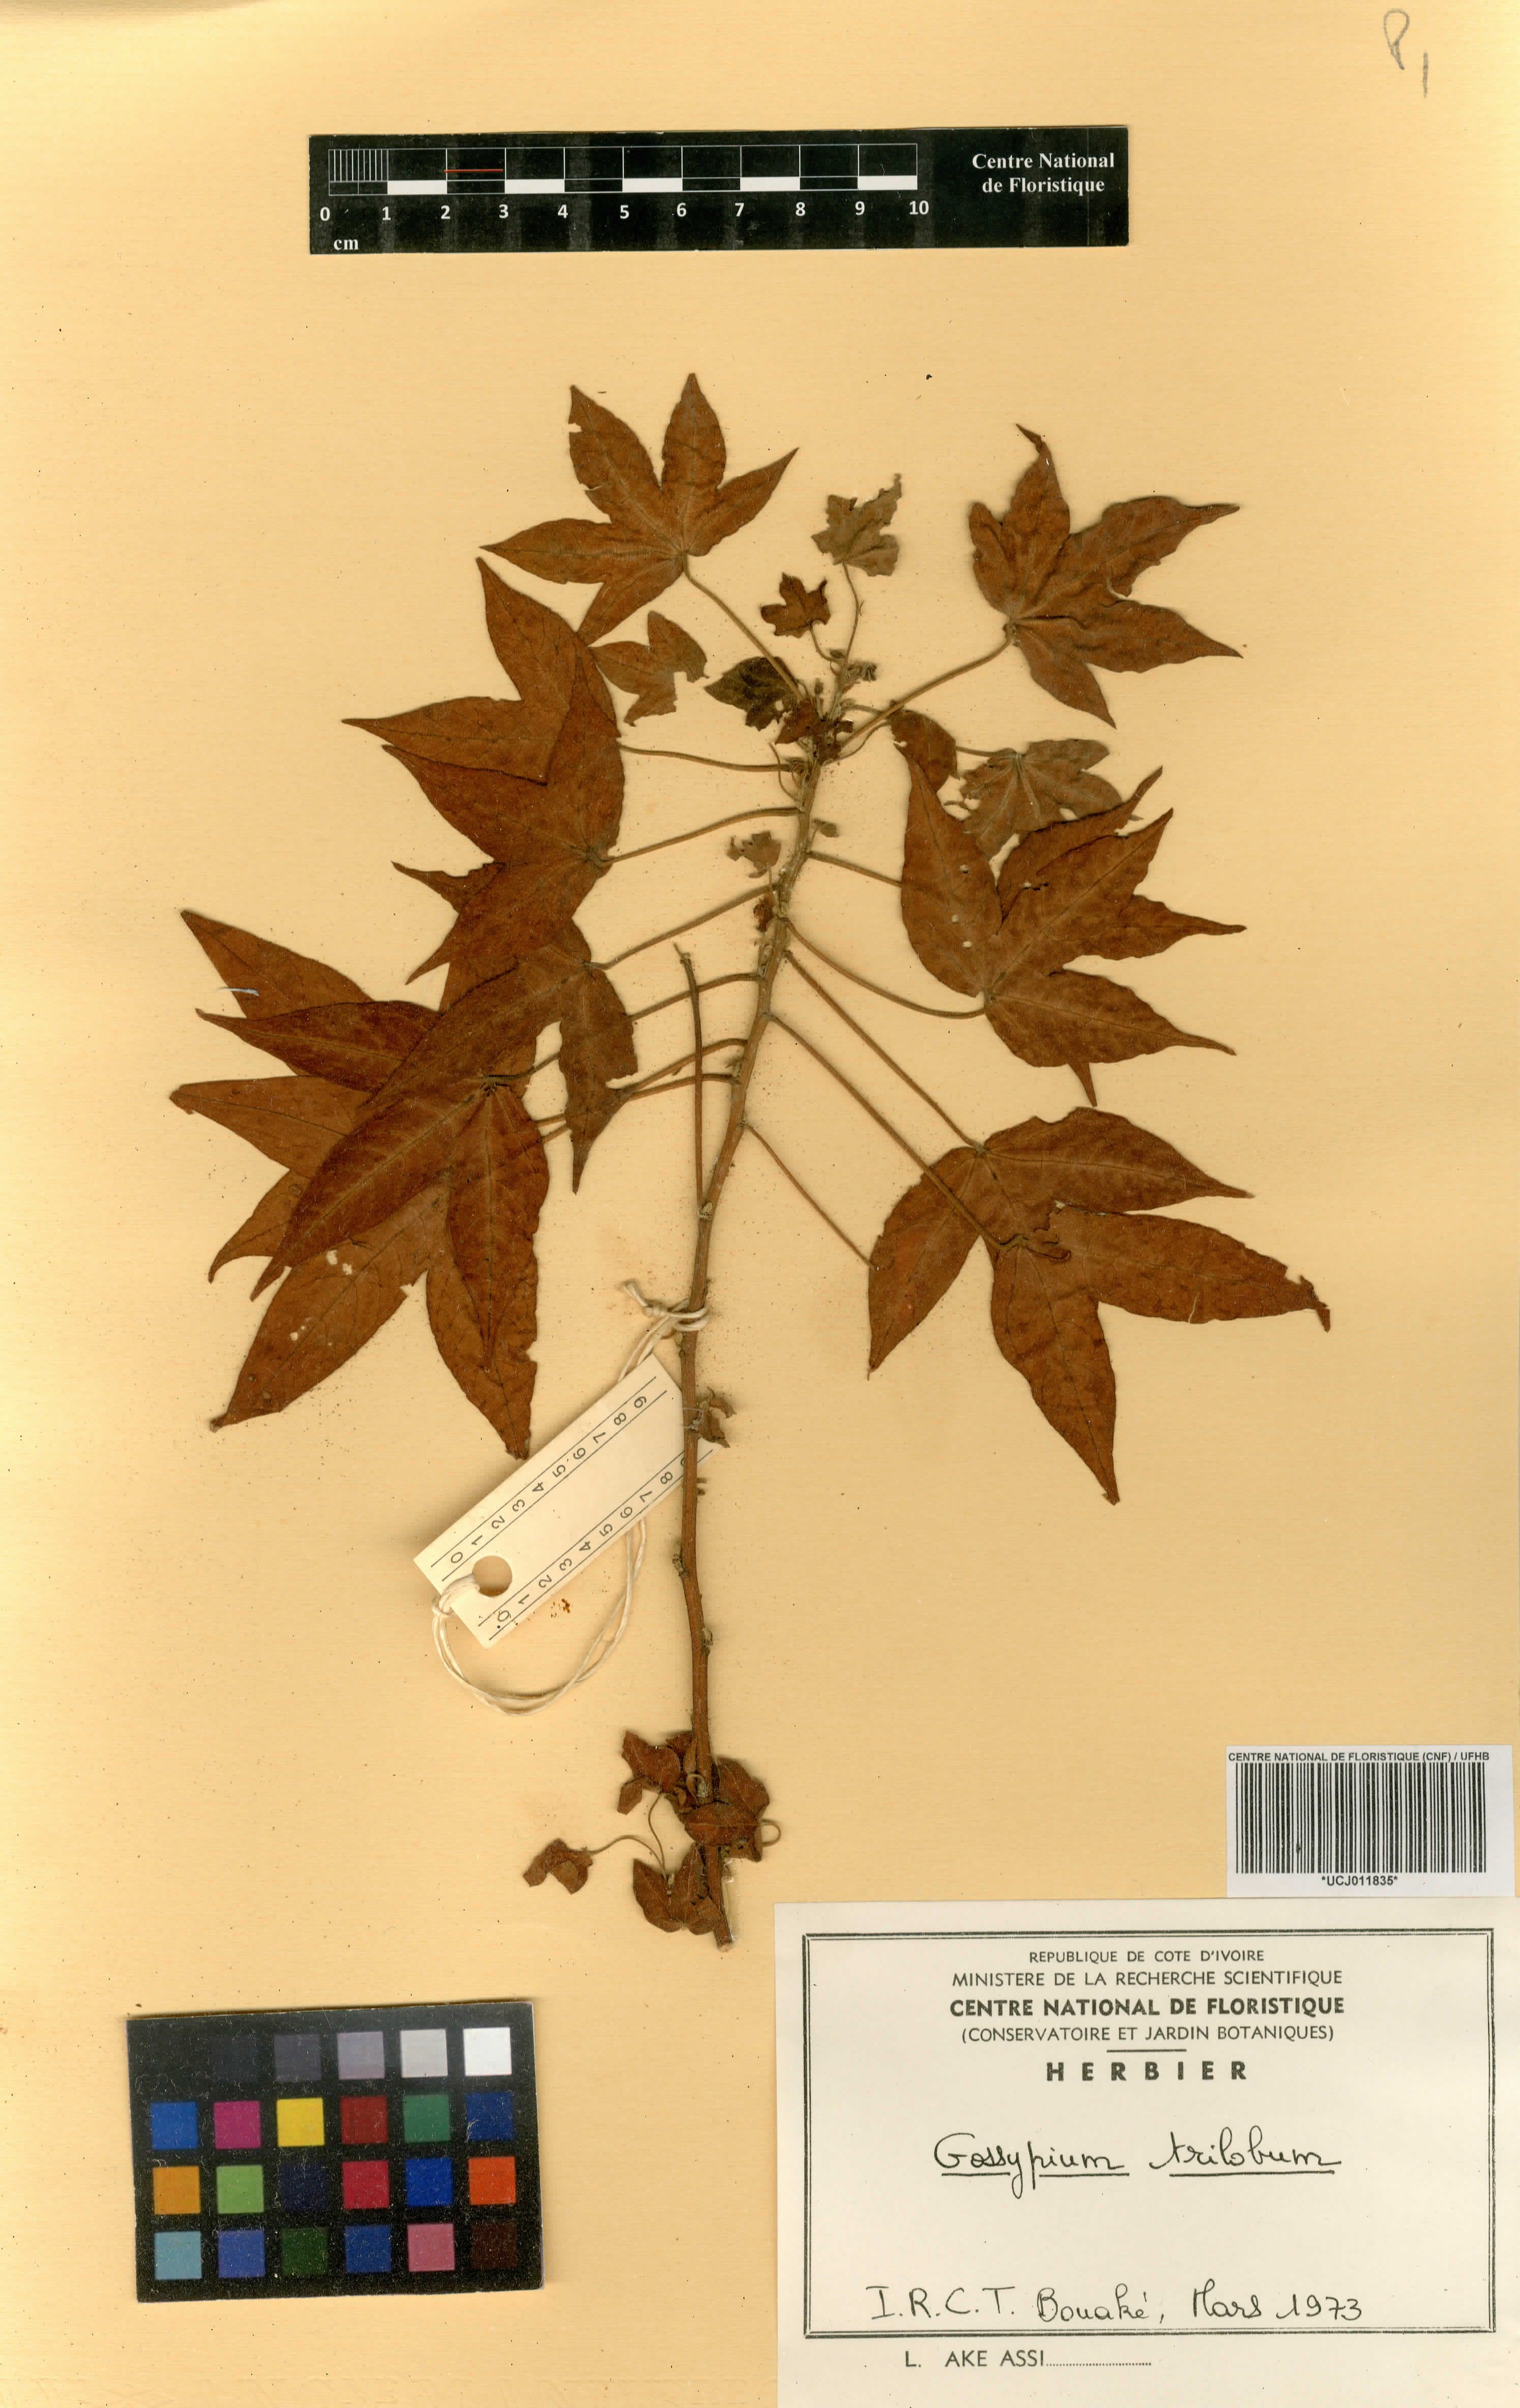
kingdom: Plantae
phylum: Tracheophyta
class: Magnoliopsida
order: Malvales
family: Malvaceae
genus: Gossypium
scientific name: Gossypium trilobum
